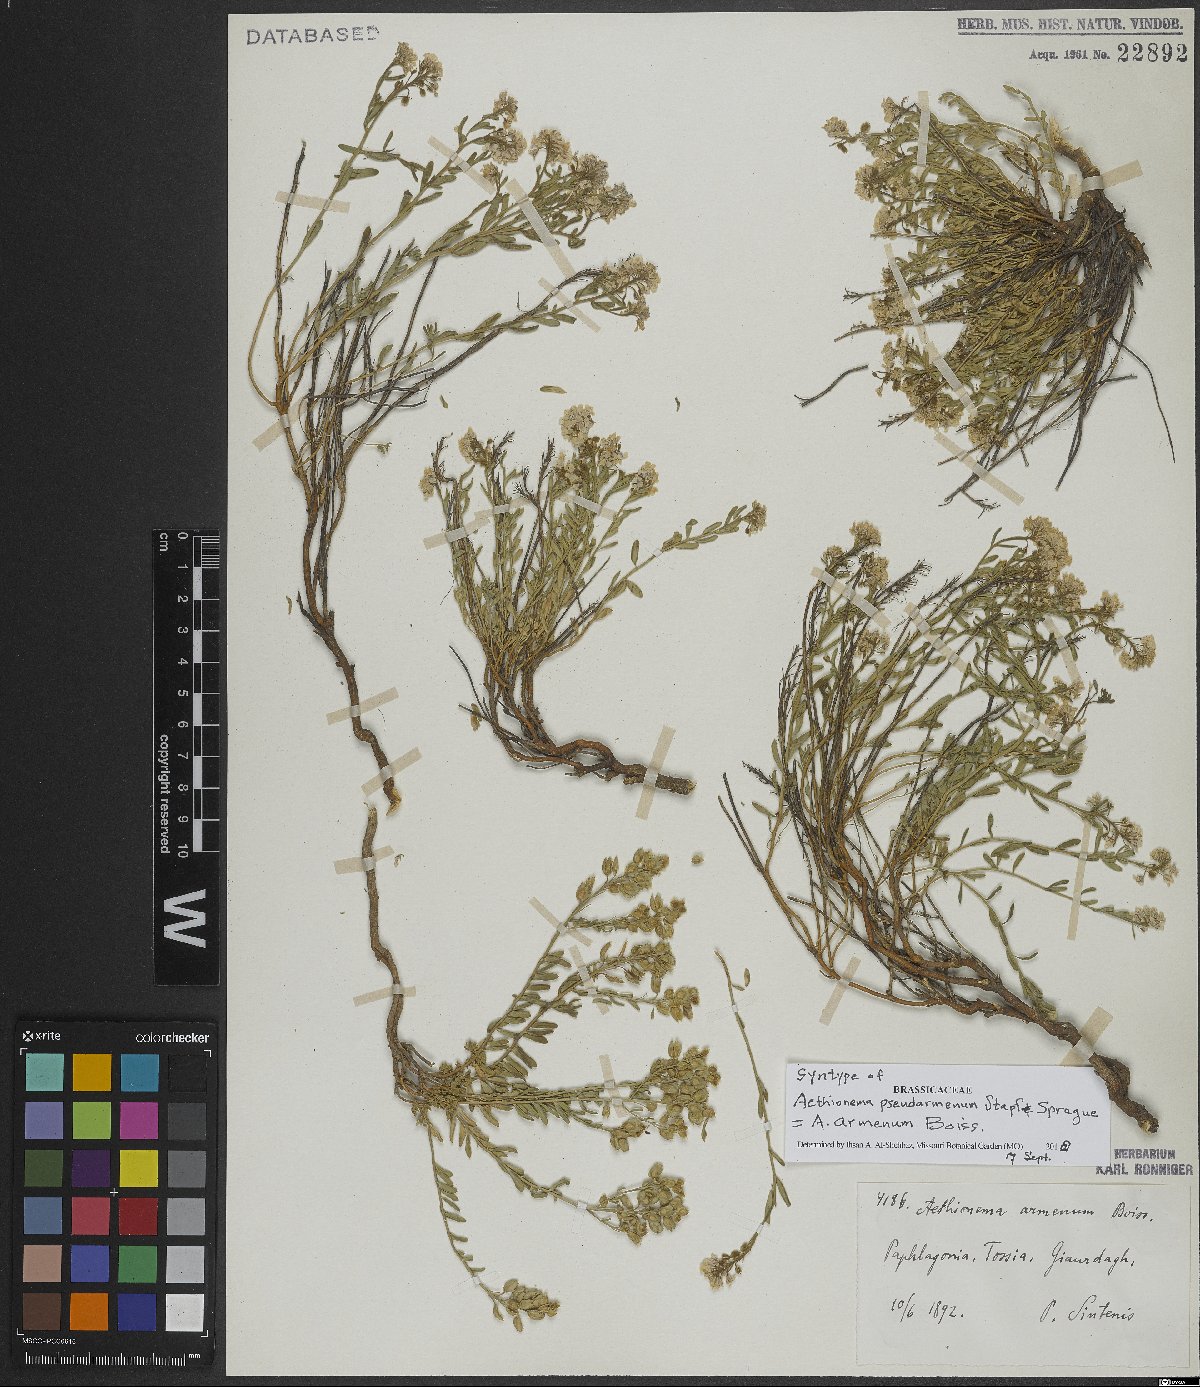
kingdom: Plantae
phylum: Tracheophyta
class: Magnoliopsida
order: Brassicales
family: Brassicaceae
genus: Aethionema
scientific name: Aethionema armenum
